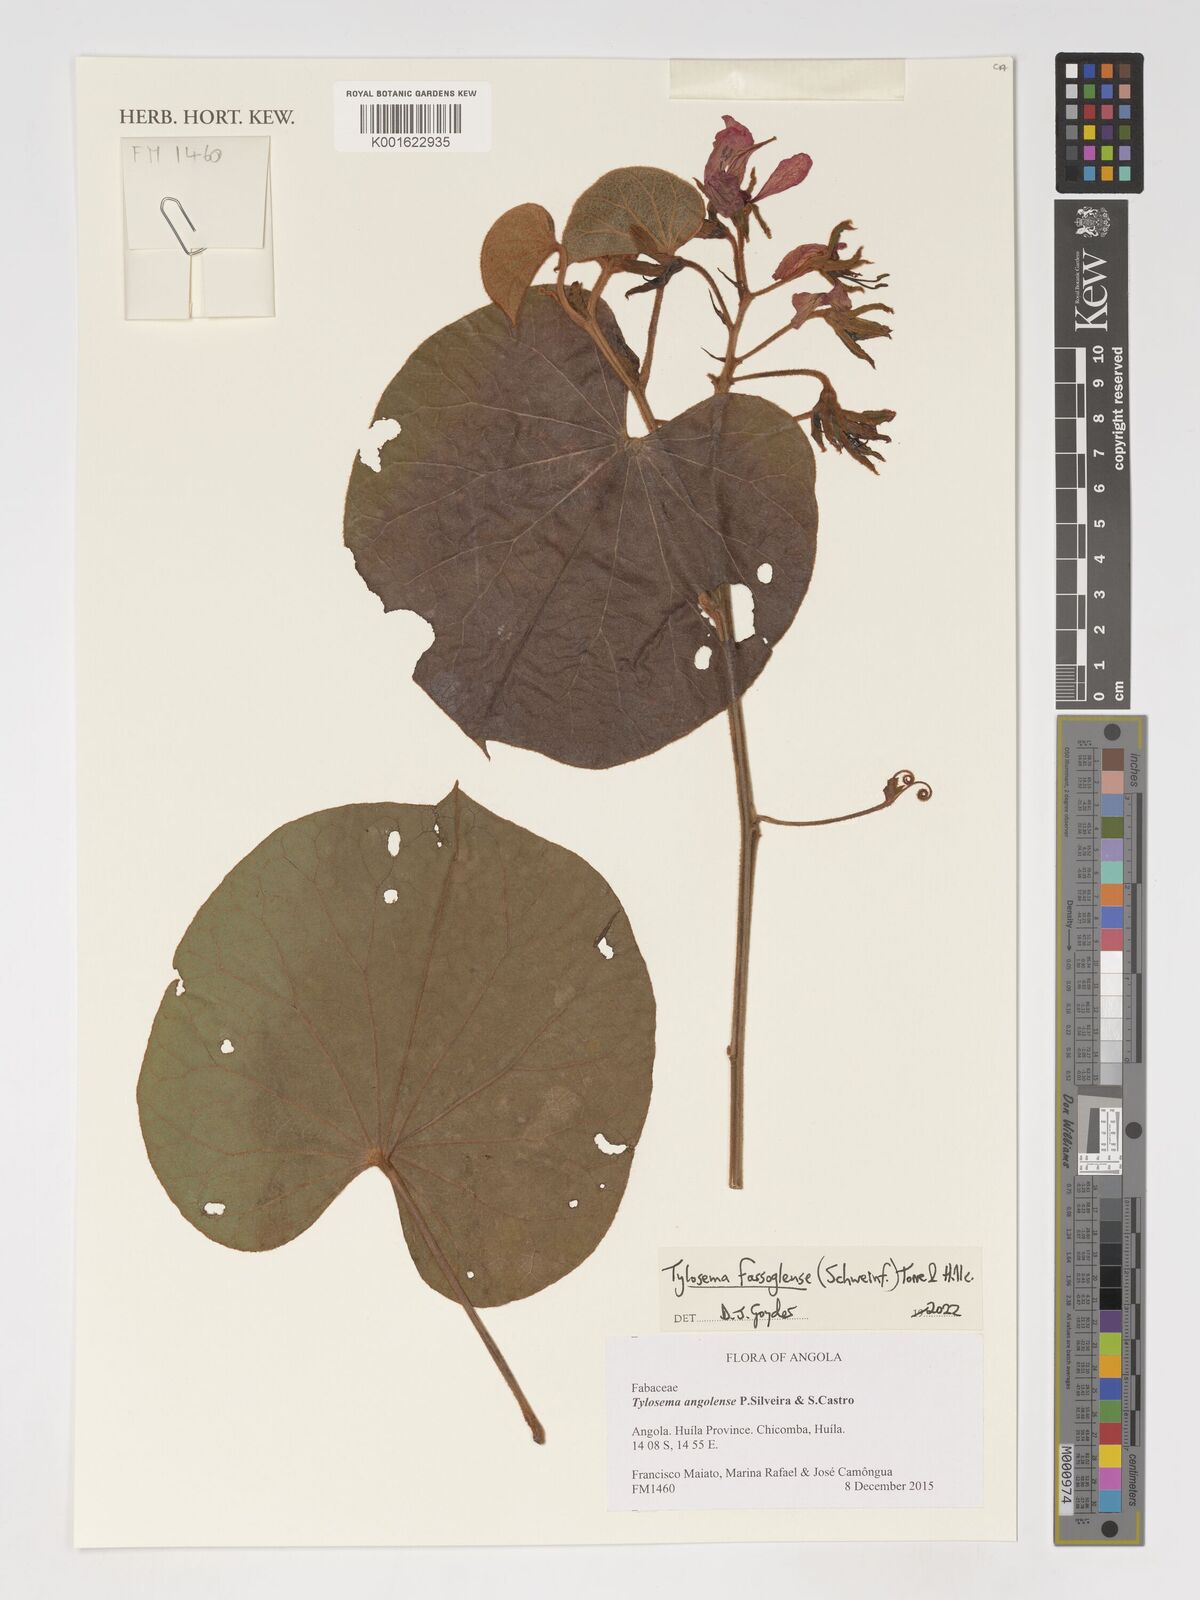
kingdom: Plantae
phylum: Tracheophyta
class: Magnoliopsida
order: Fabales
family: Fabaceae
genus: Tylosema
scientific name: Tylosema fassoglense
